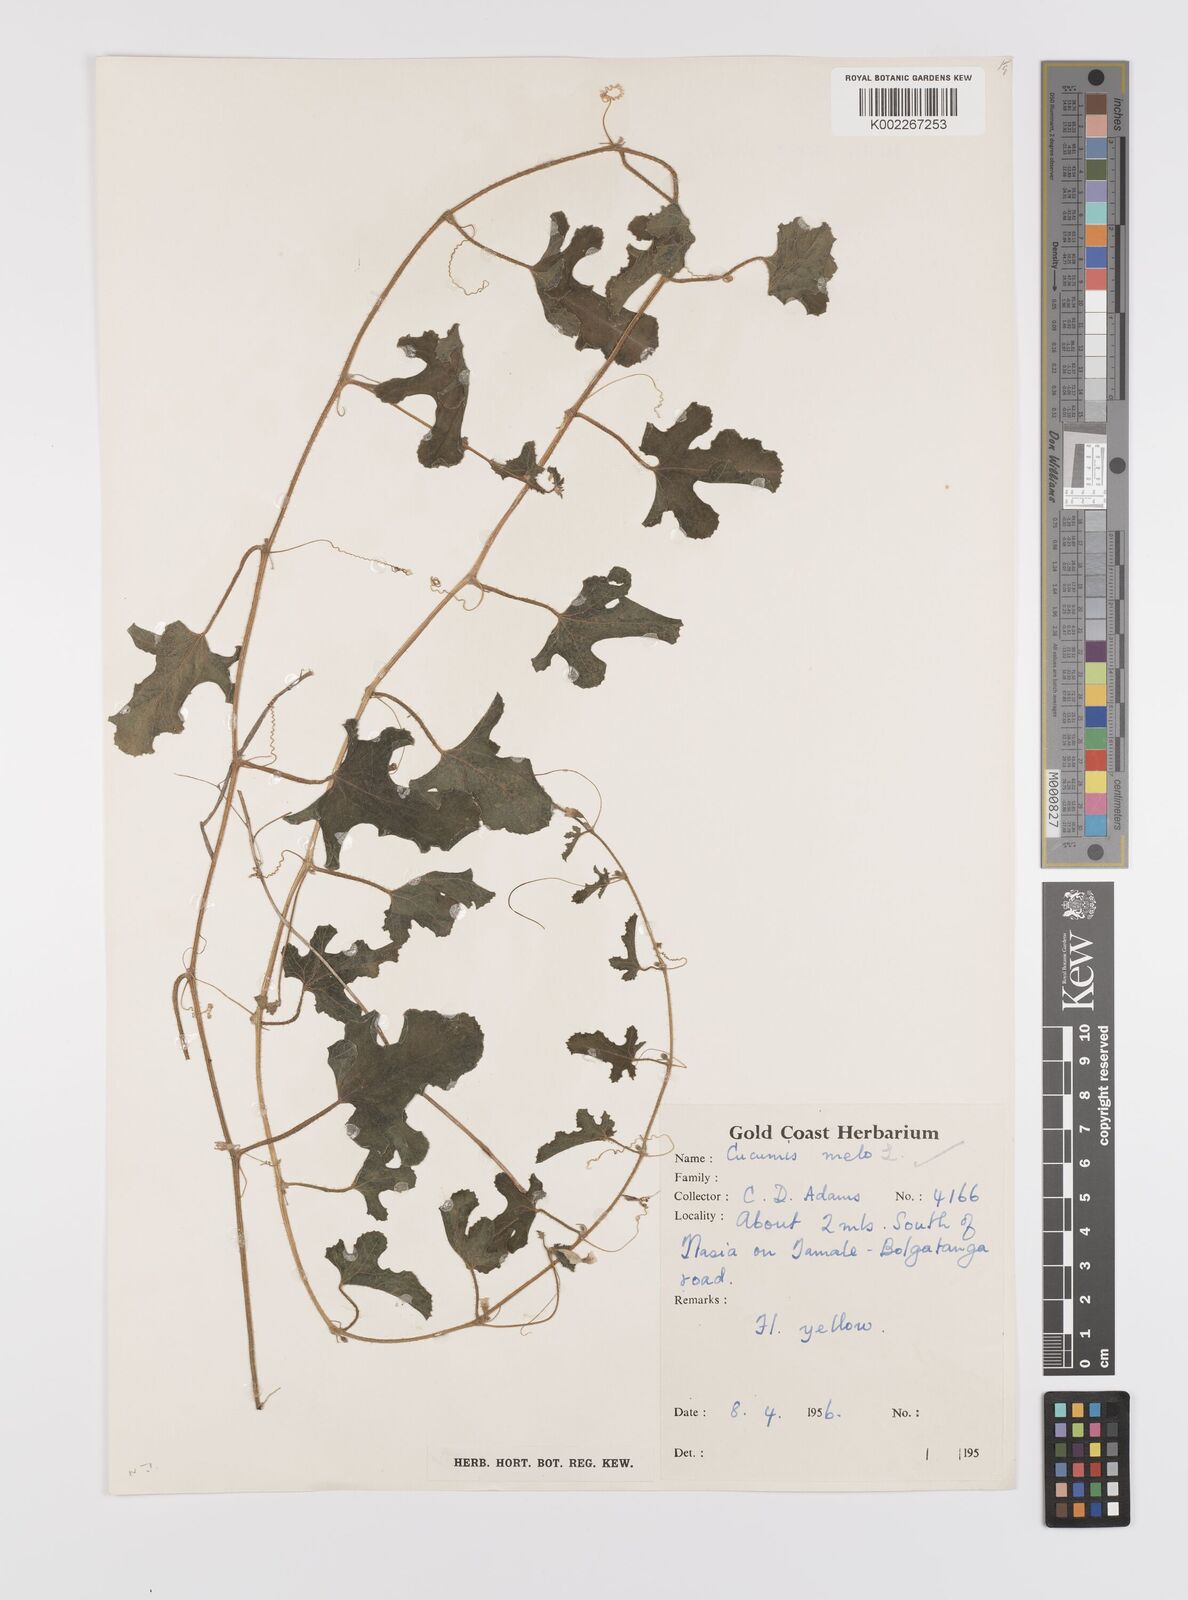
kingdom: Plantae
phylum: Tracheophyta
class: Magnoliopsida
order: Cucurbitales
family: Cucurbitaceae
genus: Cucumis
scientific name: Cucumis melo
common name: Melon
